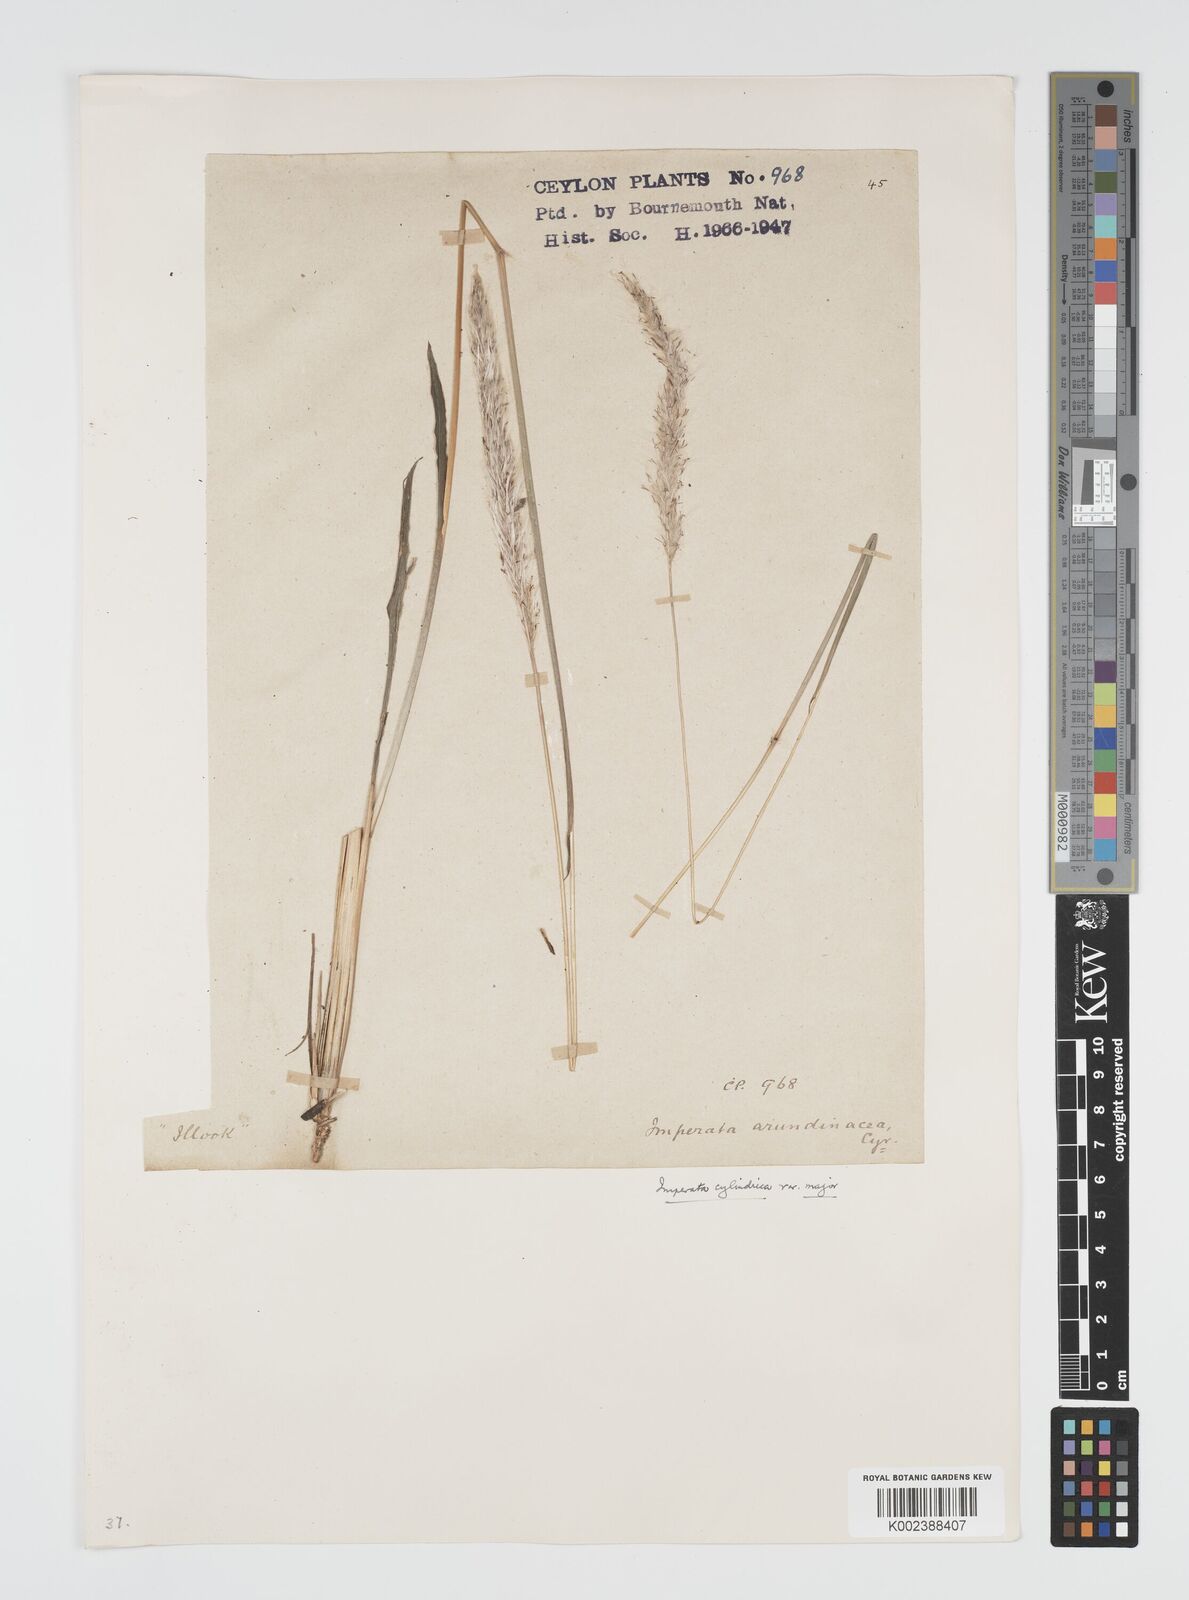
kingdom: Plantae
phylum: Tracheophyta
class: Liliopsida
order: Poales
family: Poaceae
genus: Imperata
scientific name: Imperata cylindrica
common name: Cogongrass
